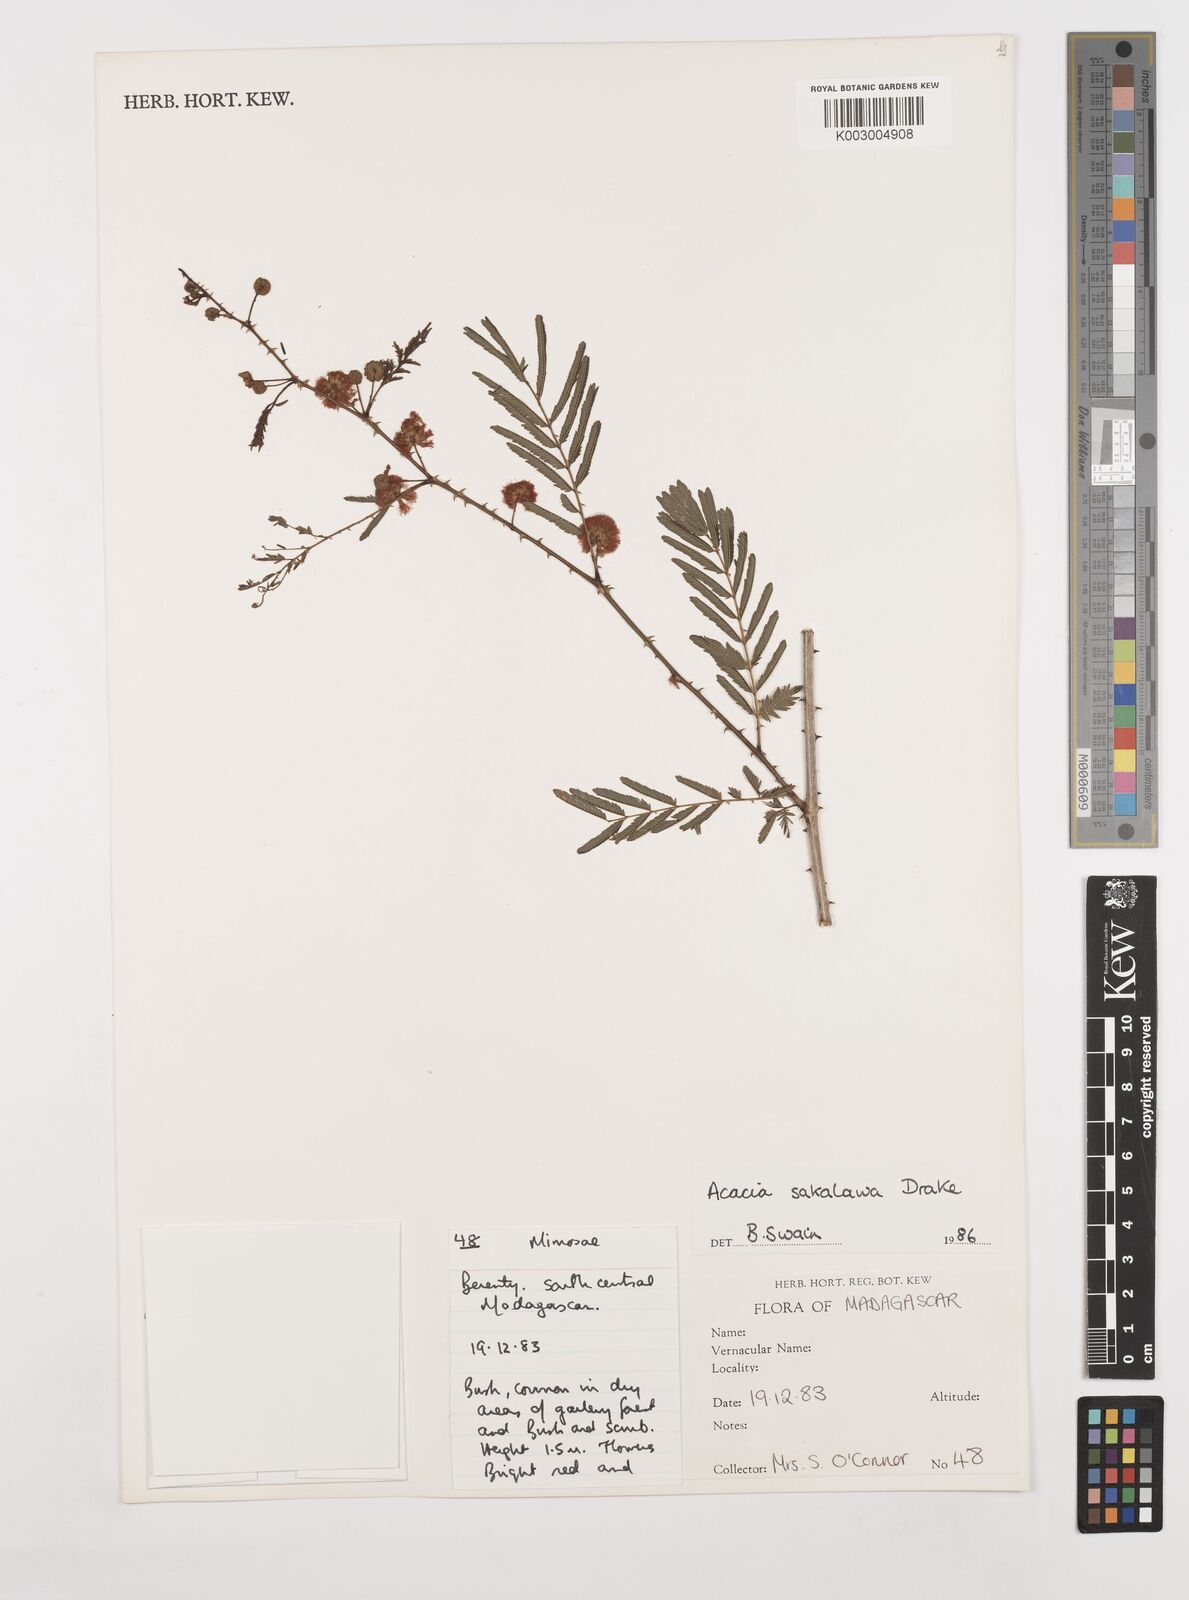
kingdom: Plantae
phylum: Tracheophyta
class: Magnoliopsida
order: Fabales
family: Fabaceae
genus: Senegalia
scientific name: Senegalia sakalava
